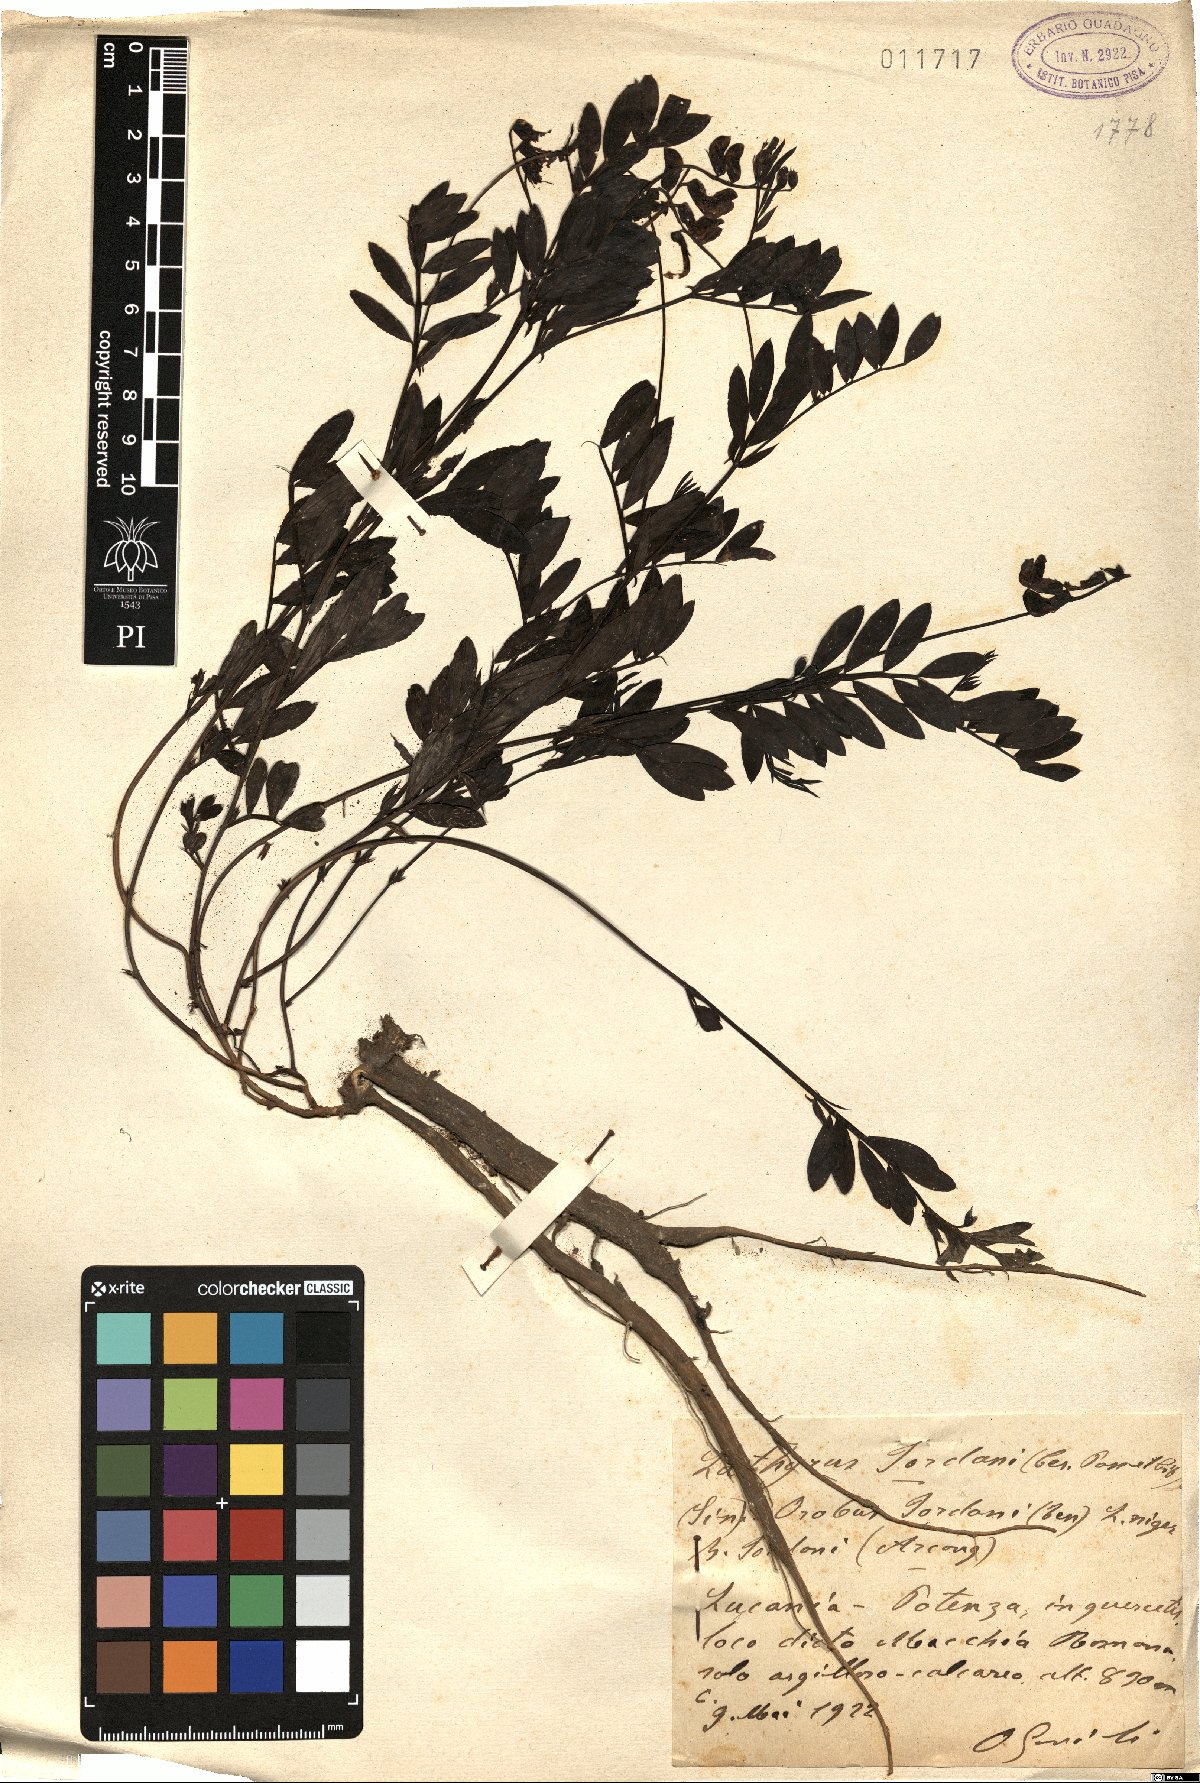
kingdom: Plantae
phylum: Tracheophyta
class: Magnoliopsida
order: Fabales
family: Fabaceae
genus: Lathyrus
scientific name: Lathyrus niger
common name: Black pea
